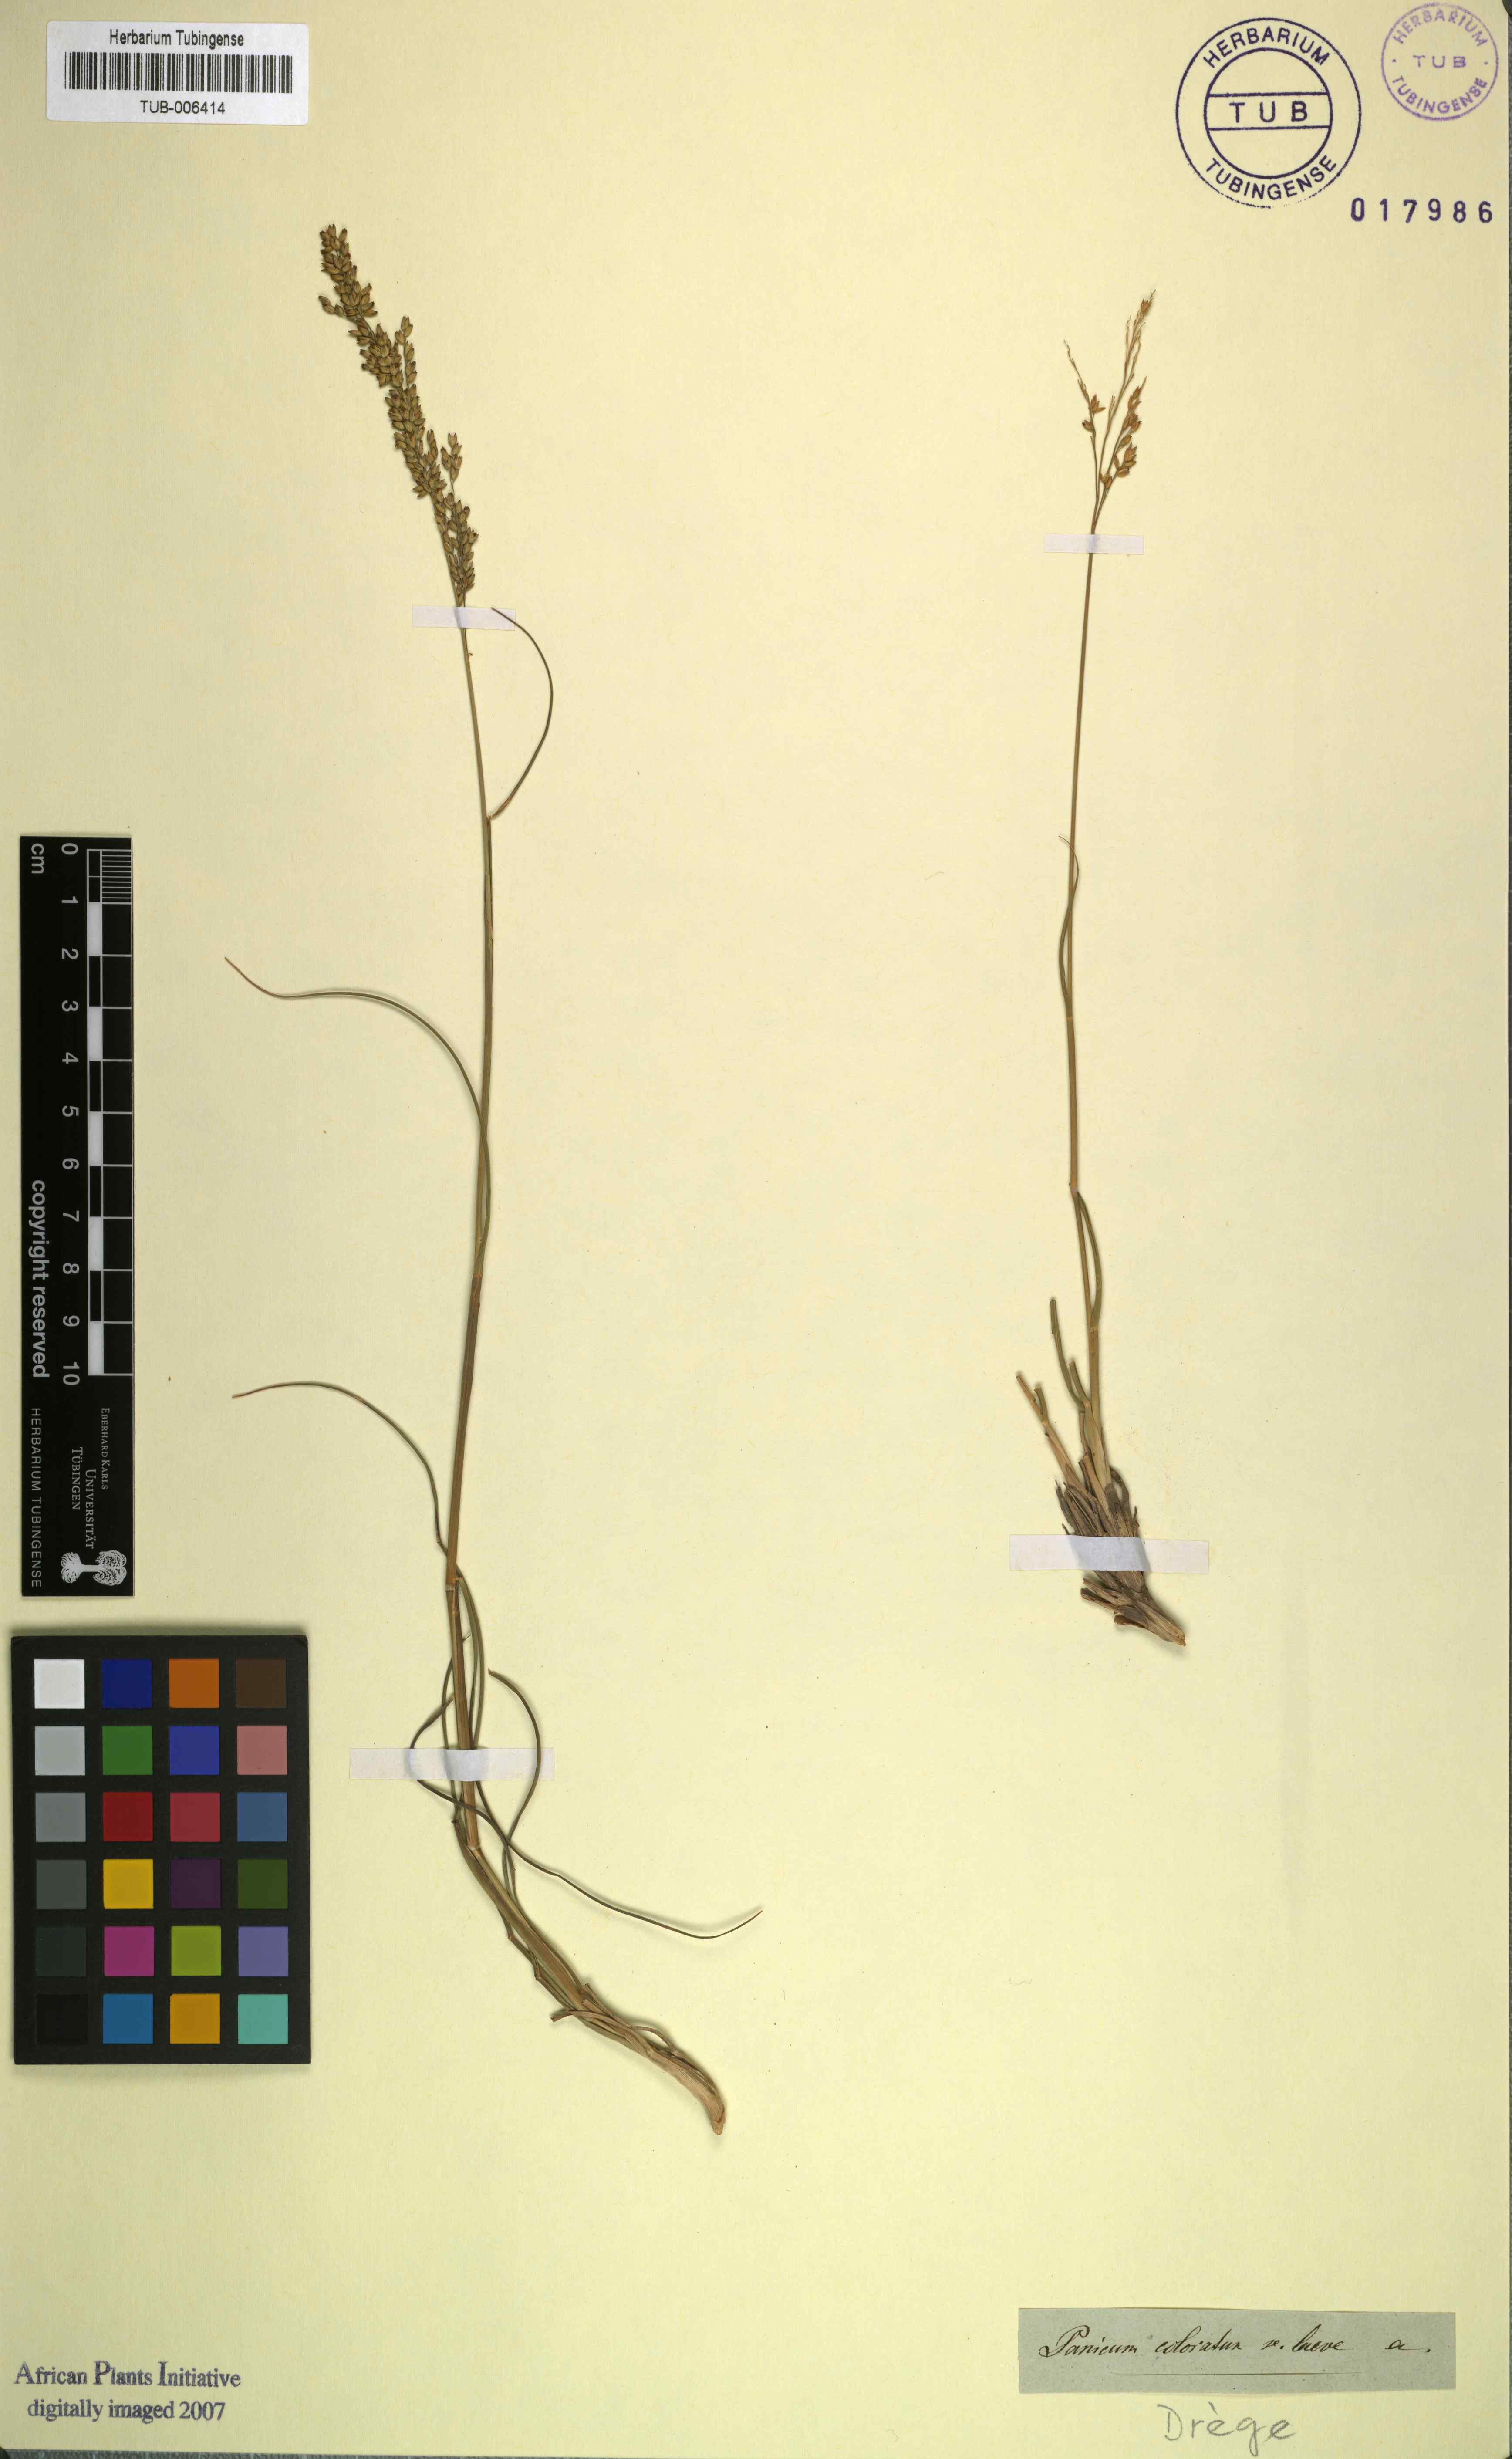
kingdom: Plantae
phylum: Tracheophyta
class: Liliopsida
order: Poales
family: Poaceae
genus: Panicum
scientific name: Panicum coloratum
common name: Kleingrass
